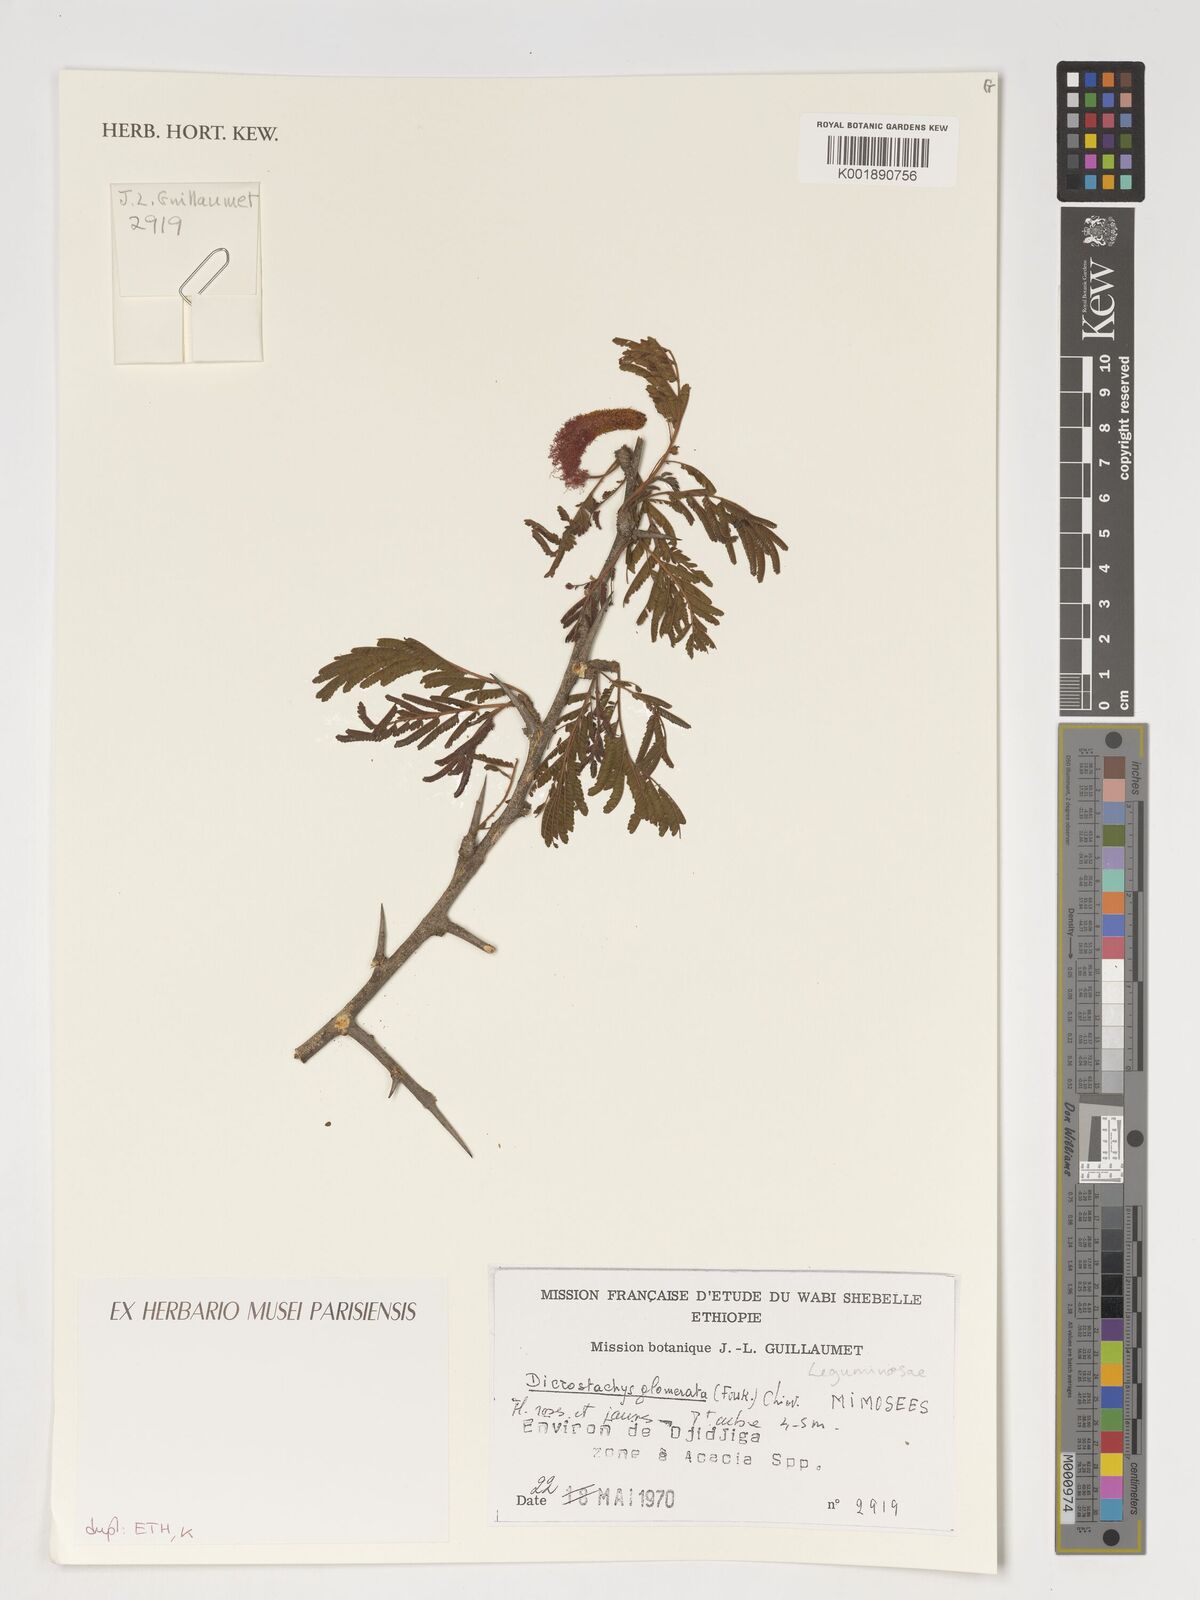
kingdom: Plantae
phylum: Tracheophyta
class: Magnoliopsida
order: Fabales
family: Fabaceae
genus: Dichrostachys
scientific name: Dichrostachys cinerea
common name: Sicklebush
